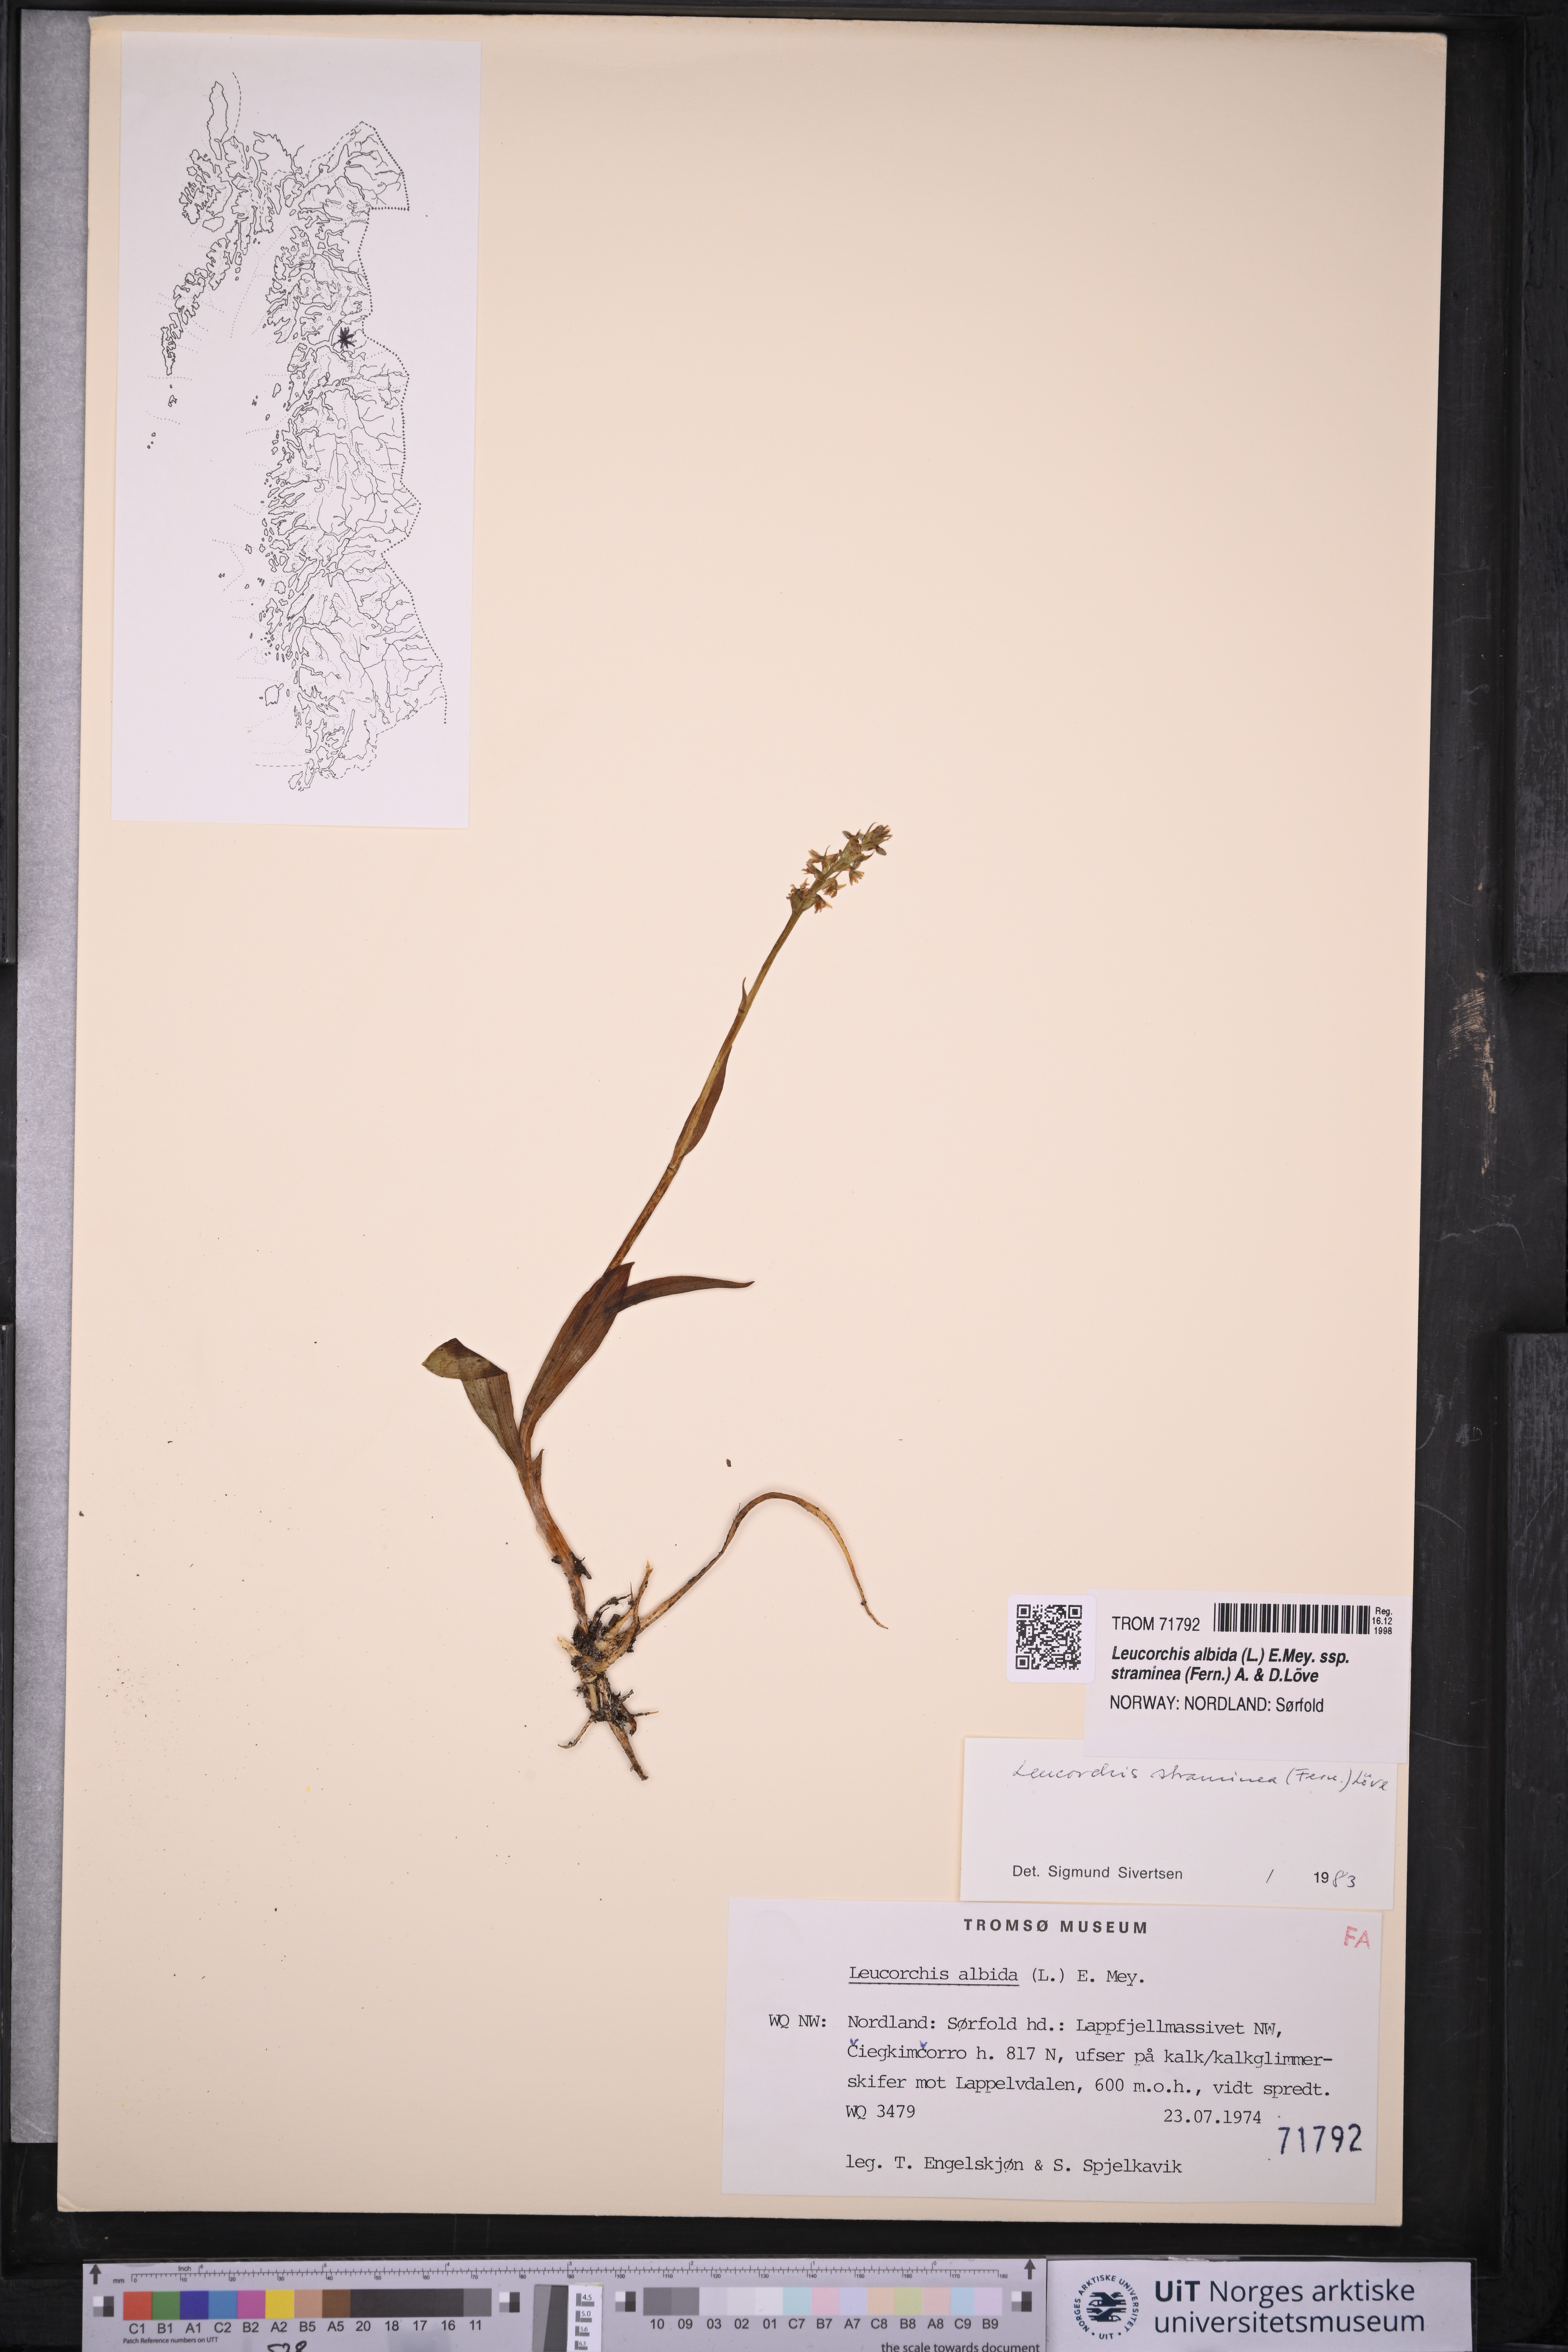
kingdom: Plantae
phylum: Tracheophyta
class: Liliopsida
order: Asparagales
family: Orchidaceae
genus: Pseudorchis
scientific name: Pseudorchis straminea
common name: Vanilla-scented bog orchid
